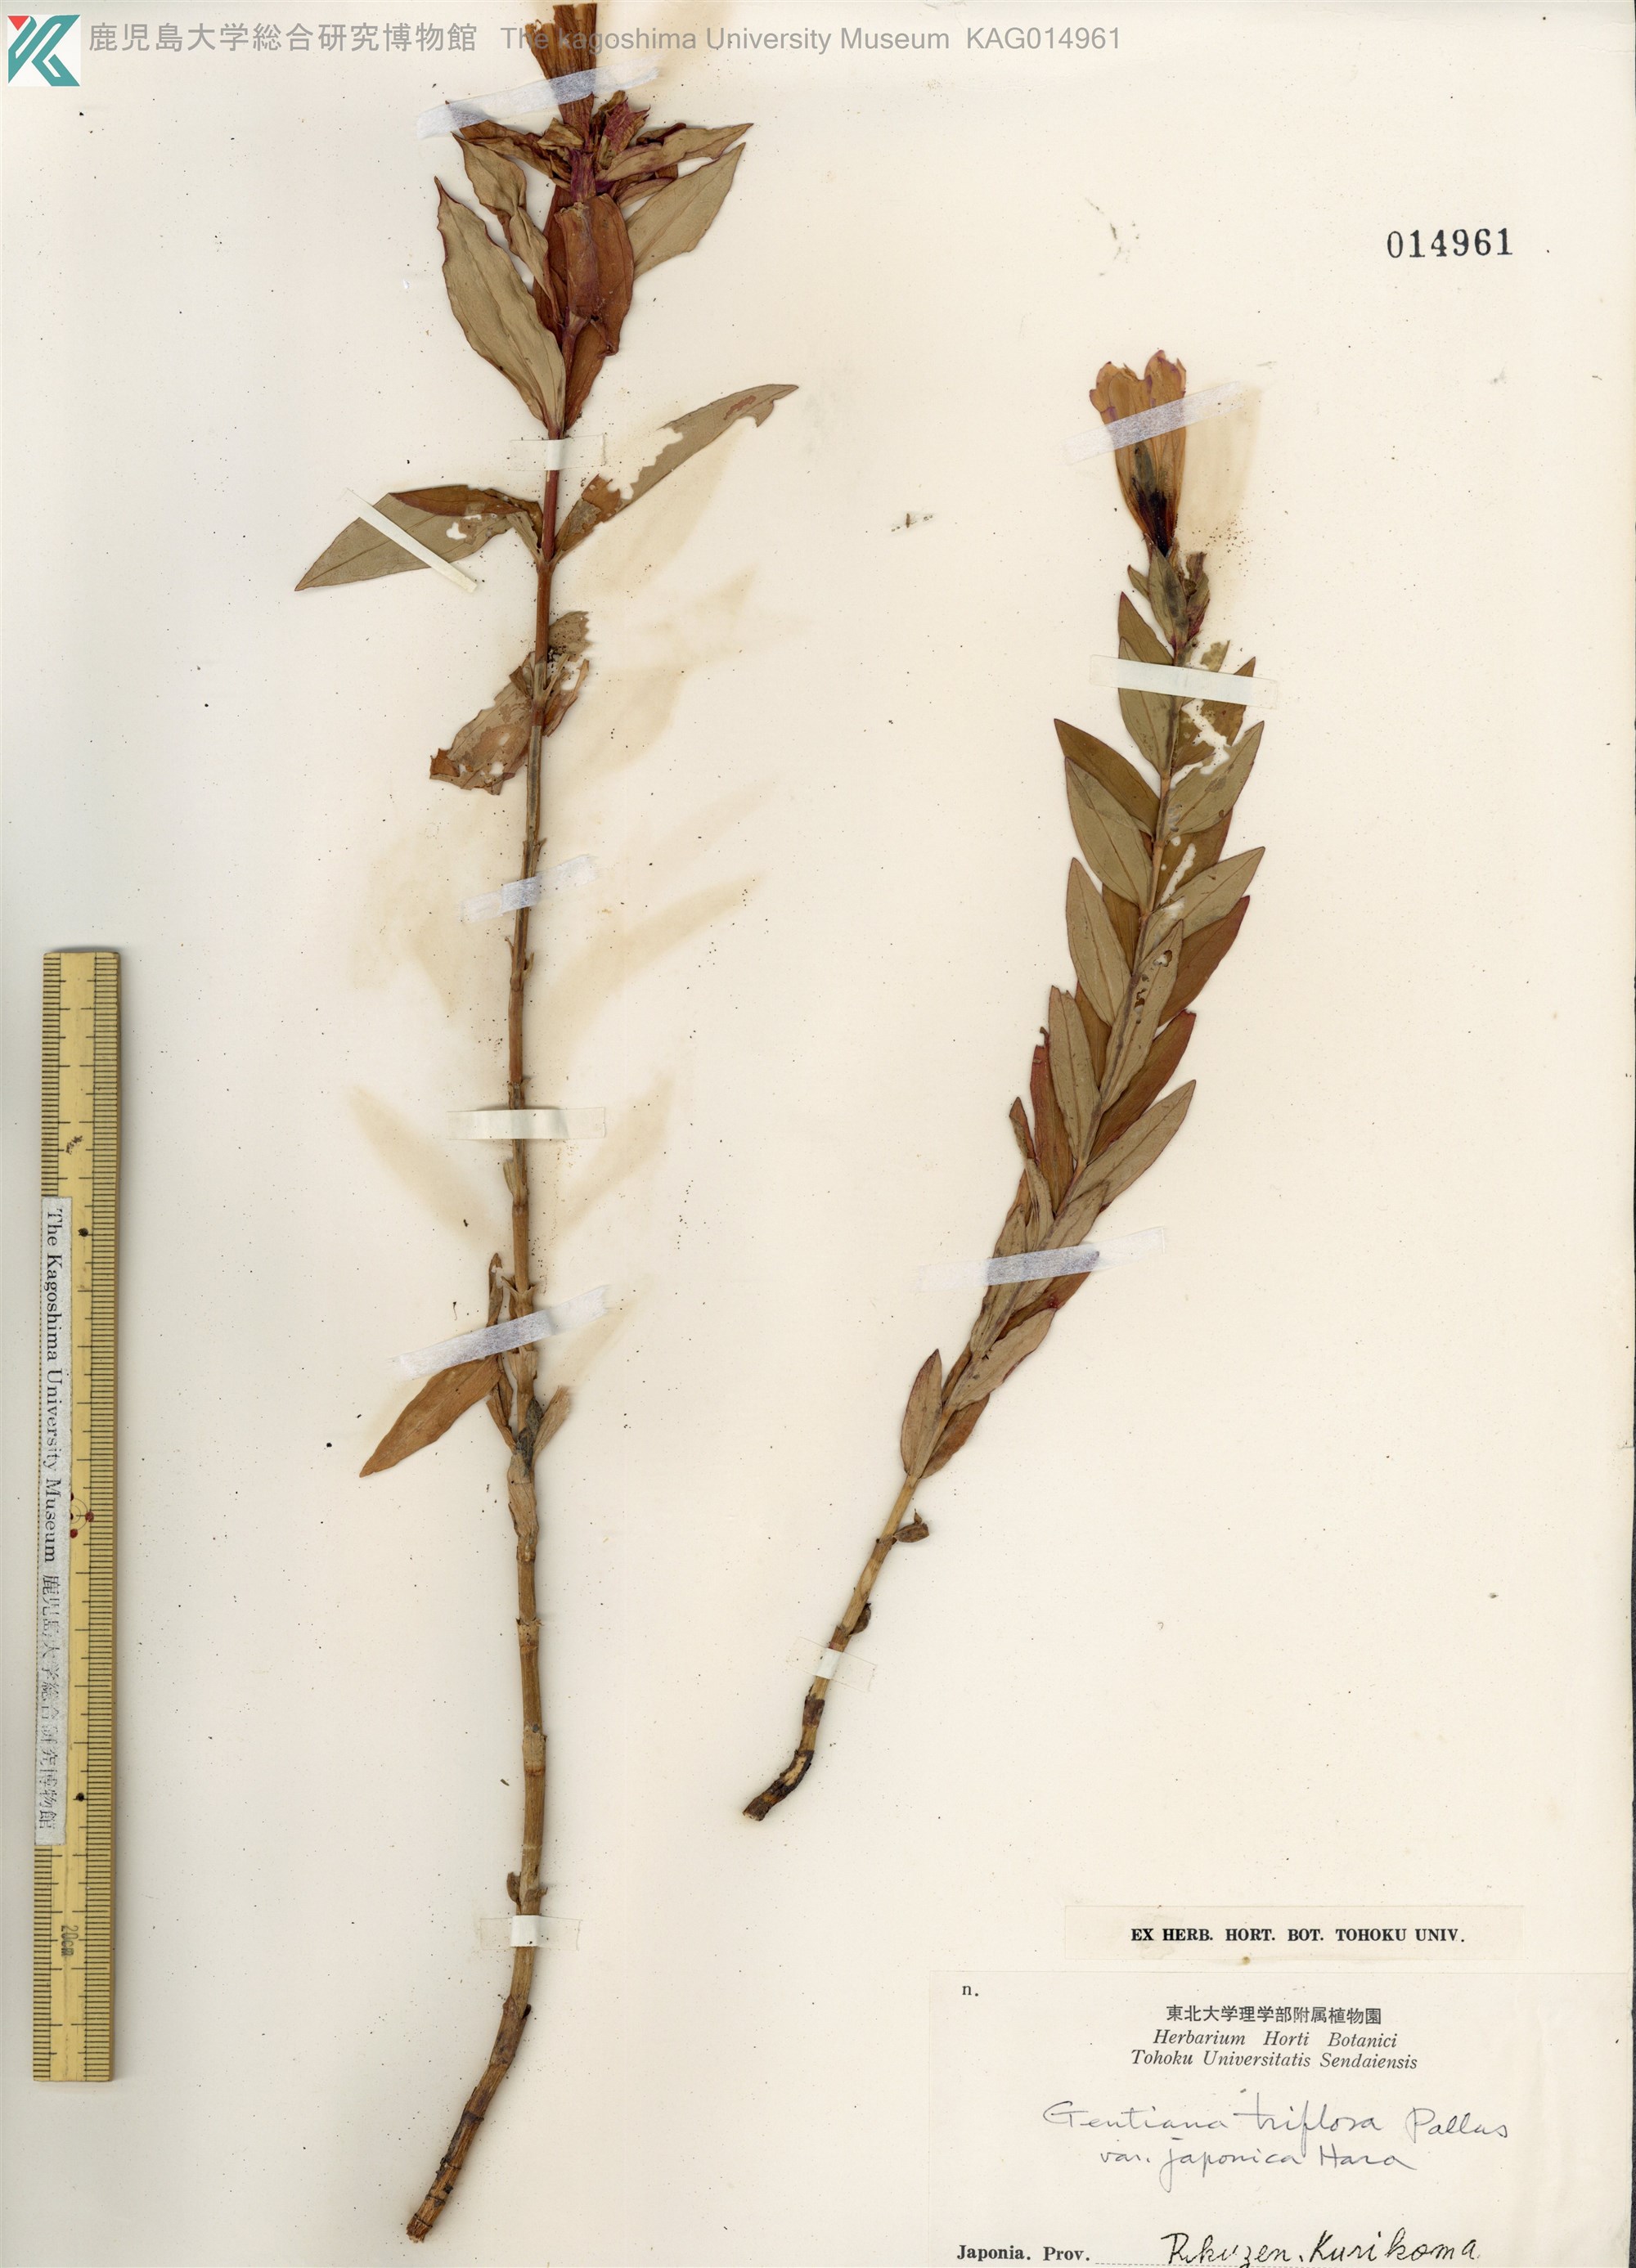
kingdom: Plantae
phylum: Tracheophyta
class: Magnoliopsida
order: Gentianales
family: Gentianaceae
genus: Gentiana
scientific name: Gentiana triflora
